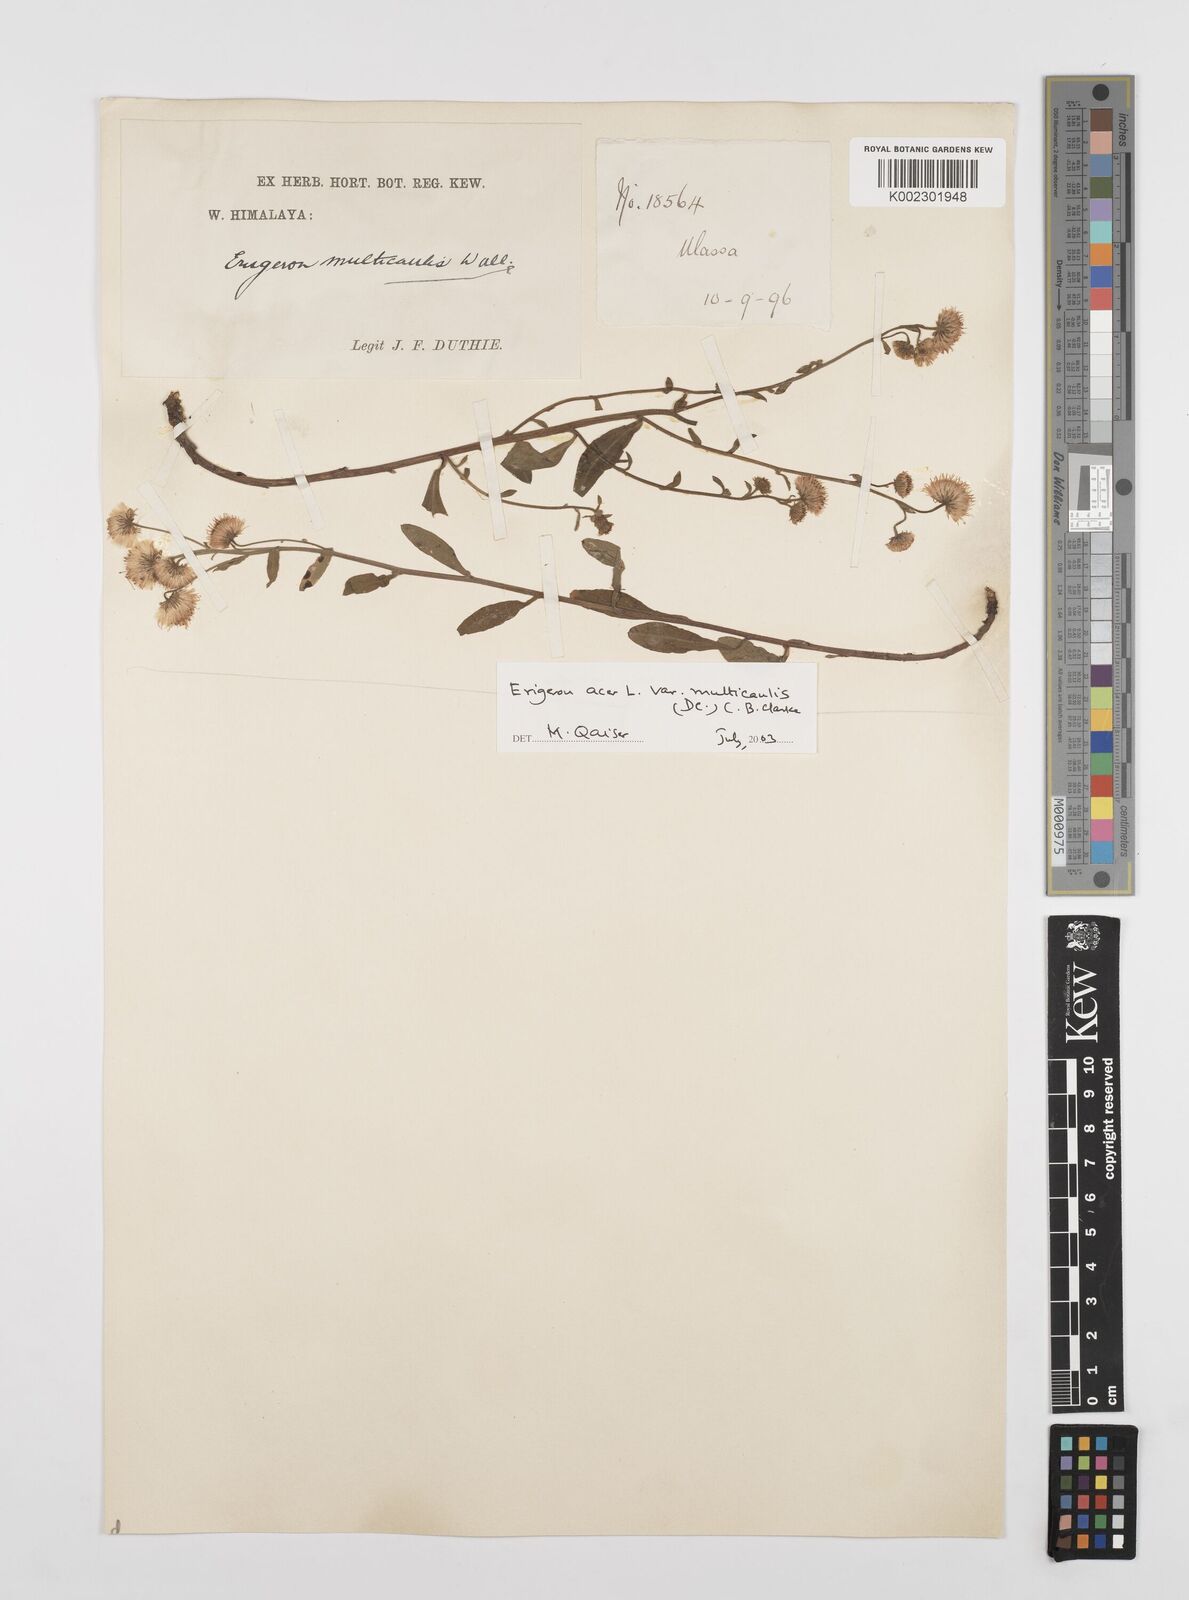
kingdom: Plantae
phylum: Tracheophyta
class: Magnoliopsida
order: Asterales
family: Asteraceae
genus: Erigeron
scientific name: Erigeron alpinus
